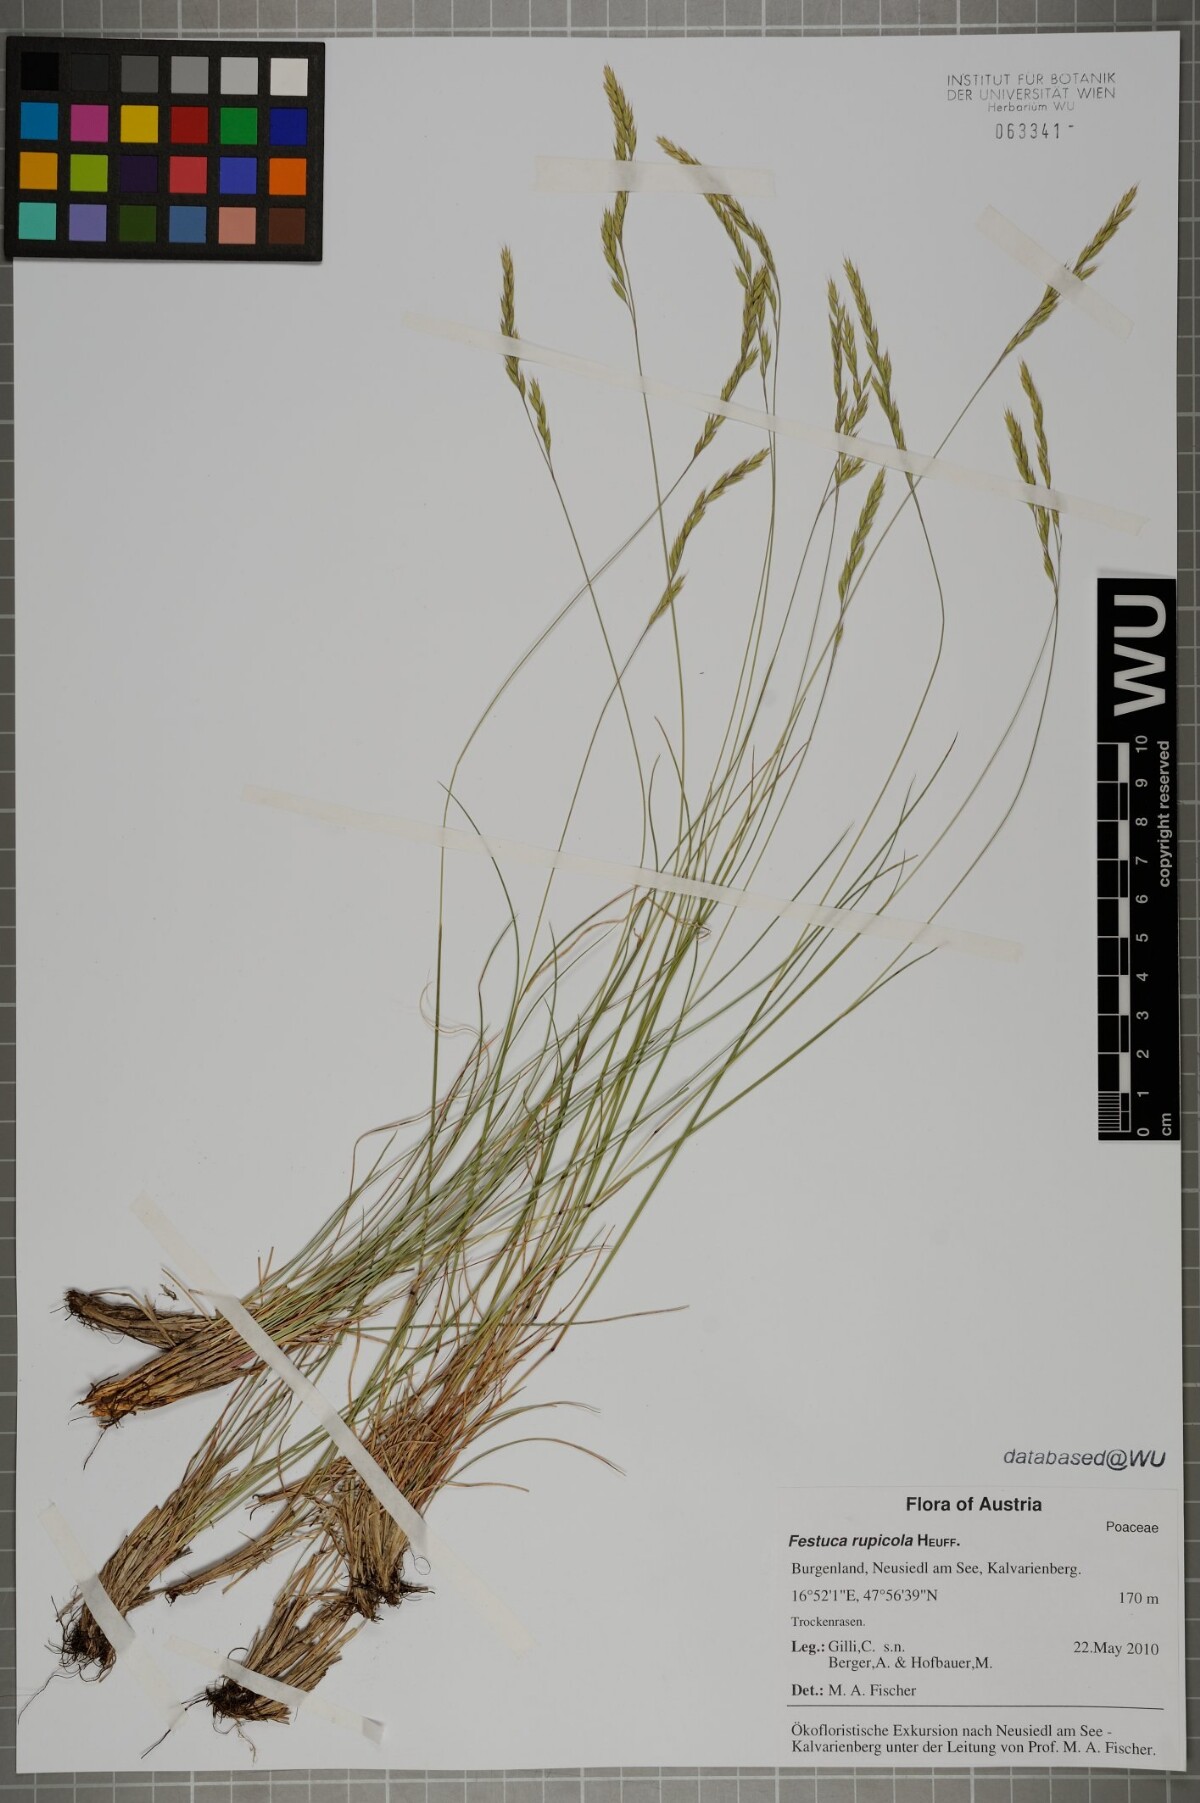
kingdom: Plantae
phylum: Tracheophyta
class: Liliopsida
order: Poales
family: Poaceae
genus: Festuca
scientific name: Festuca rupicola
